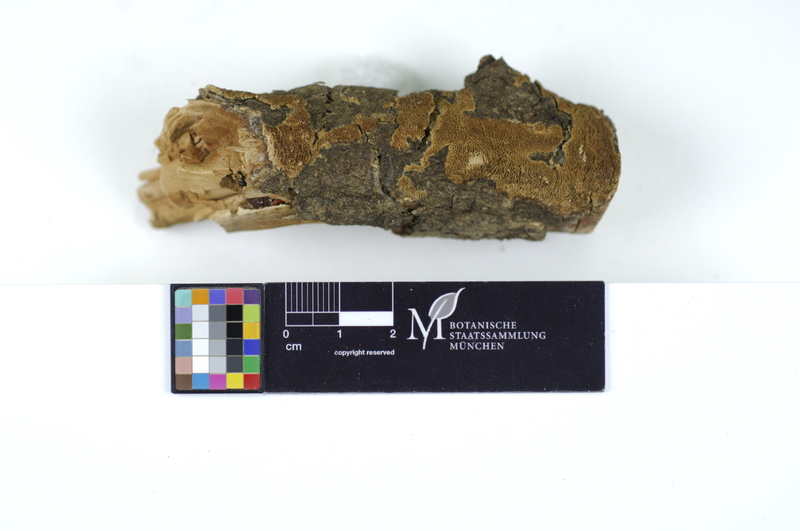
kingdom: Plantae
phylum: Tracheophyta
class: Magnoliopsida
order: Malpighiales
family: Salicaceae
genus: Salix
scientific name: Salix
